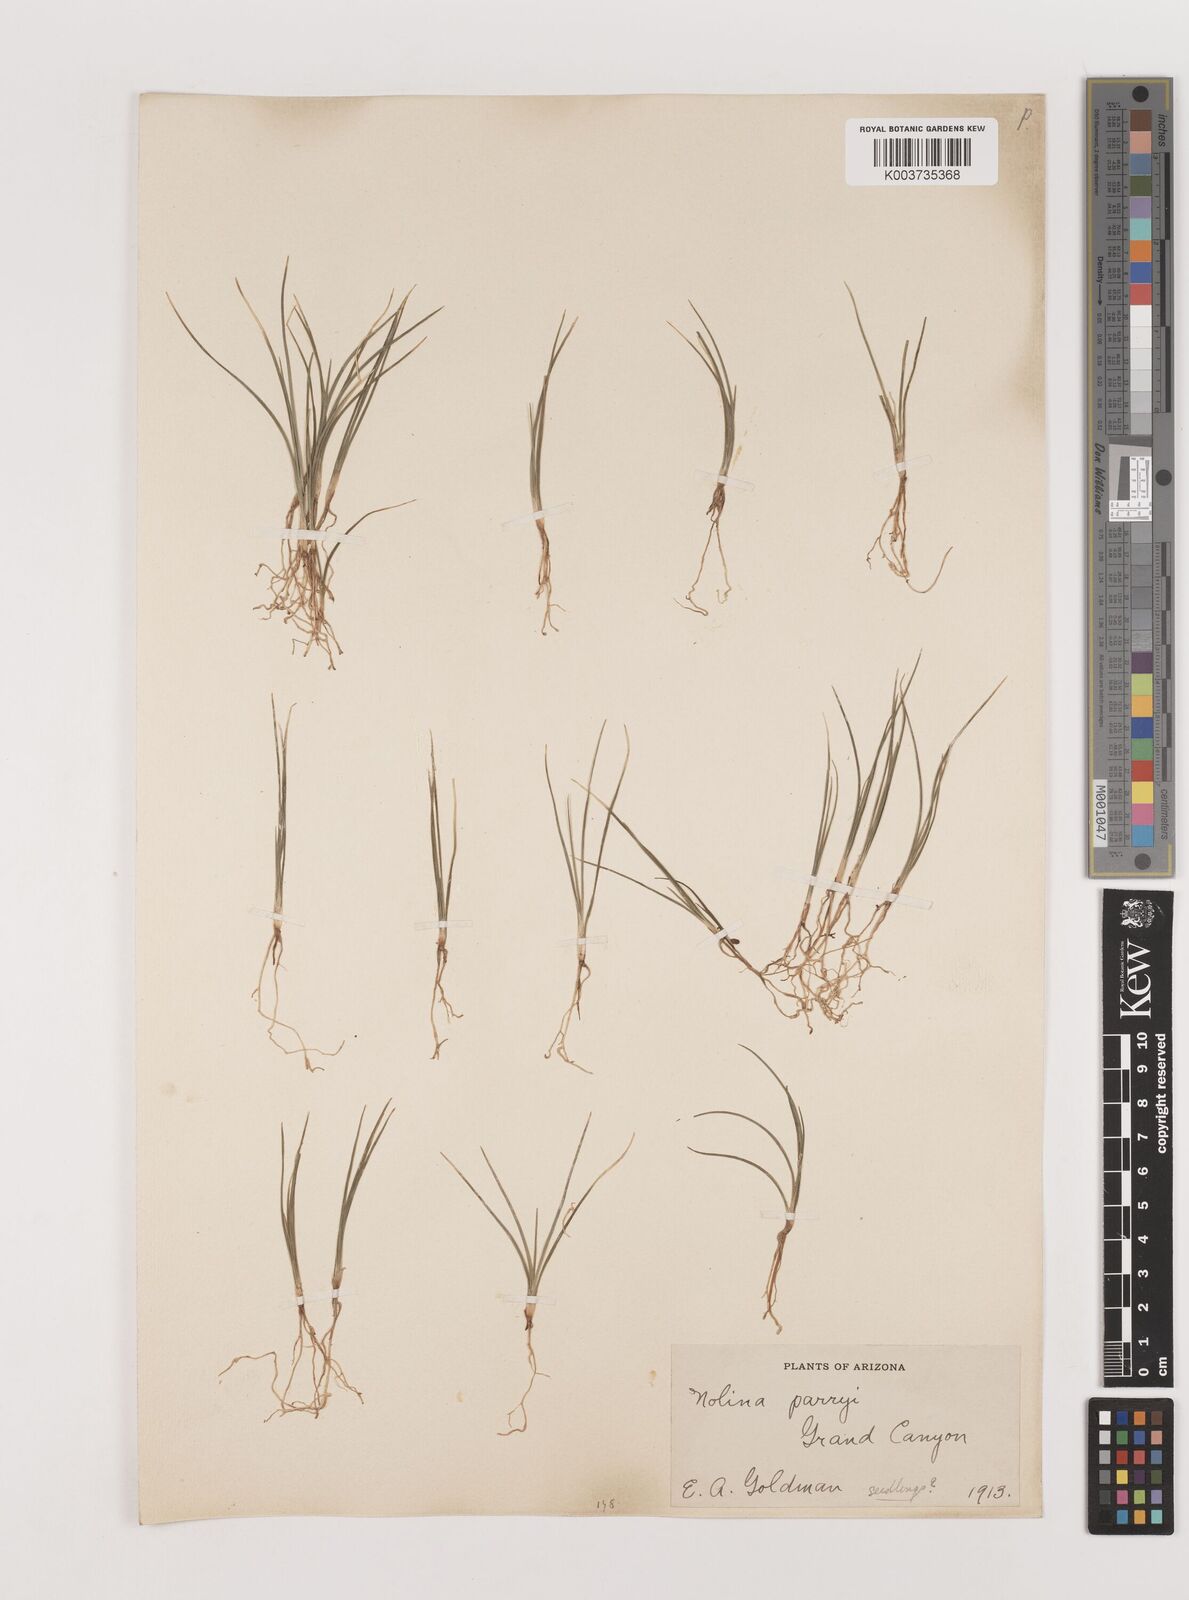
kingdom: Plantae
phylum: Tracheophyta
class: Liliopsida
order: Asparagales
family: Asparagaceae
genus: Nolina
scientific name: Nolina parryi
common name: Parry nolina
